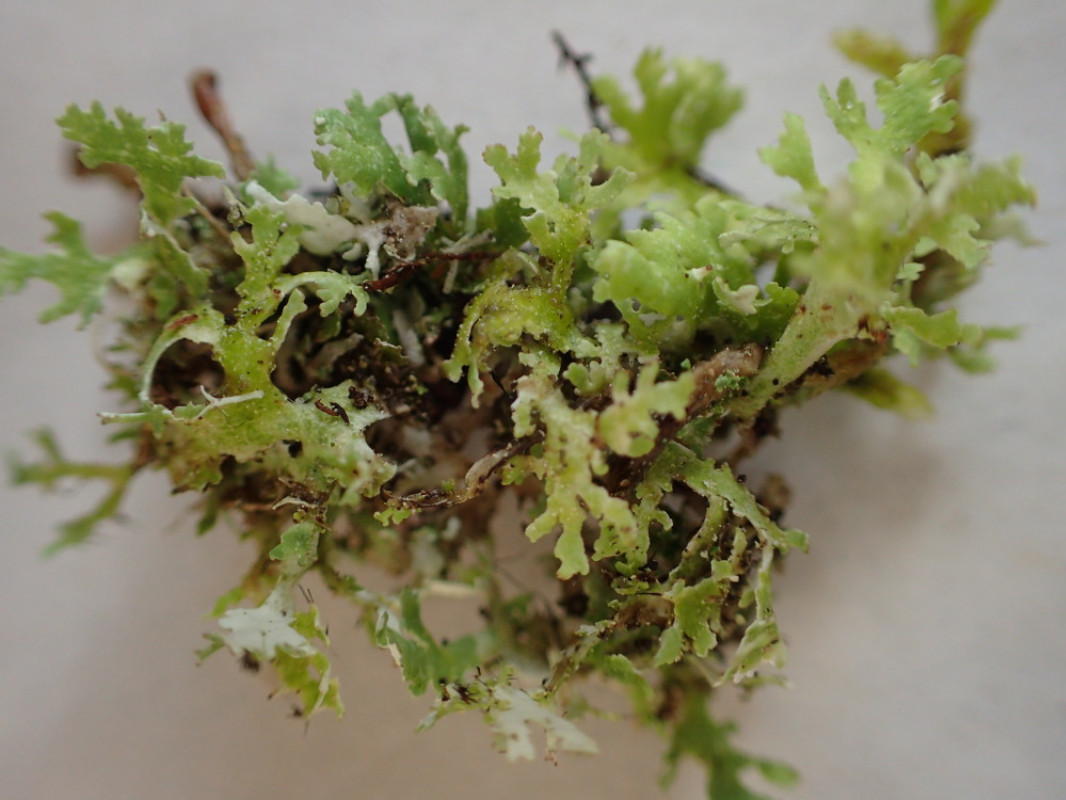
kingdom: Fungi
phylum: Ascomycota
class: Lecanoromycetes
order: Lecanorales
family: Cladoniaceae
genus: Cladonia
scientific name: Cladonia foliacea
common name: fliget bægerlav
